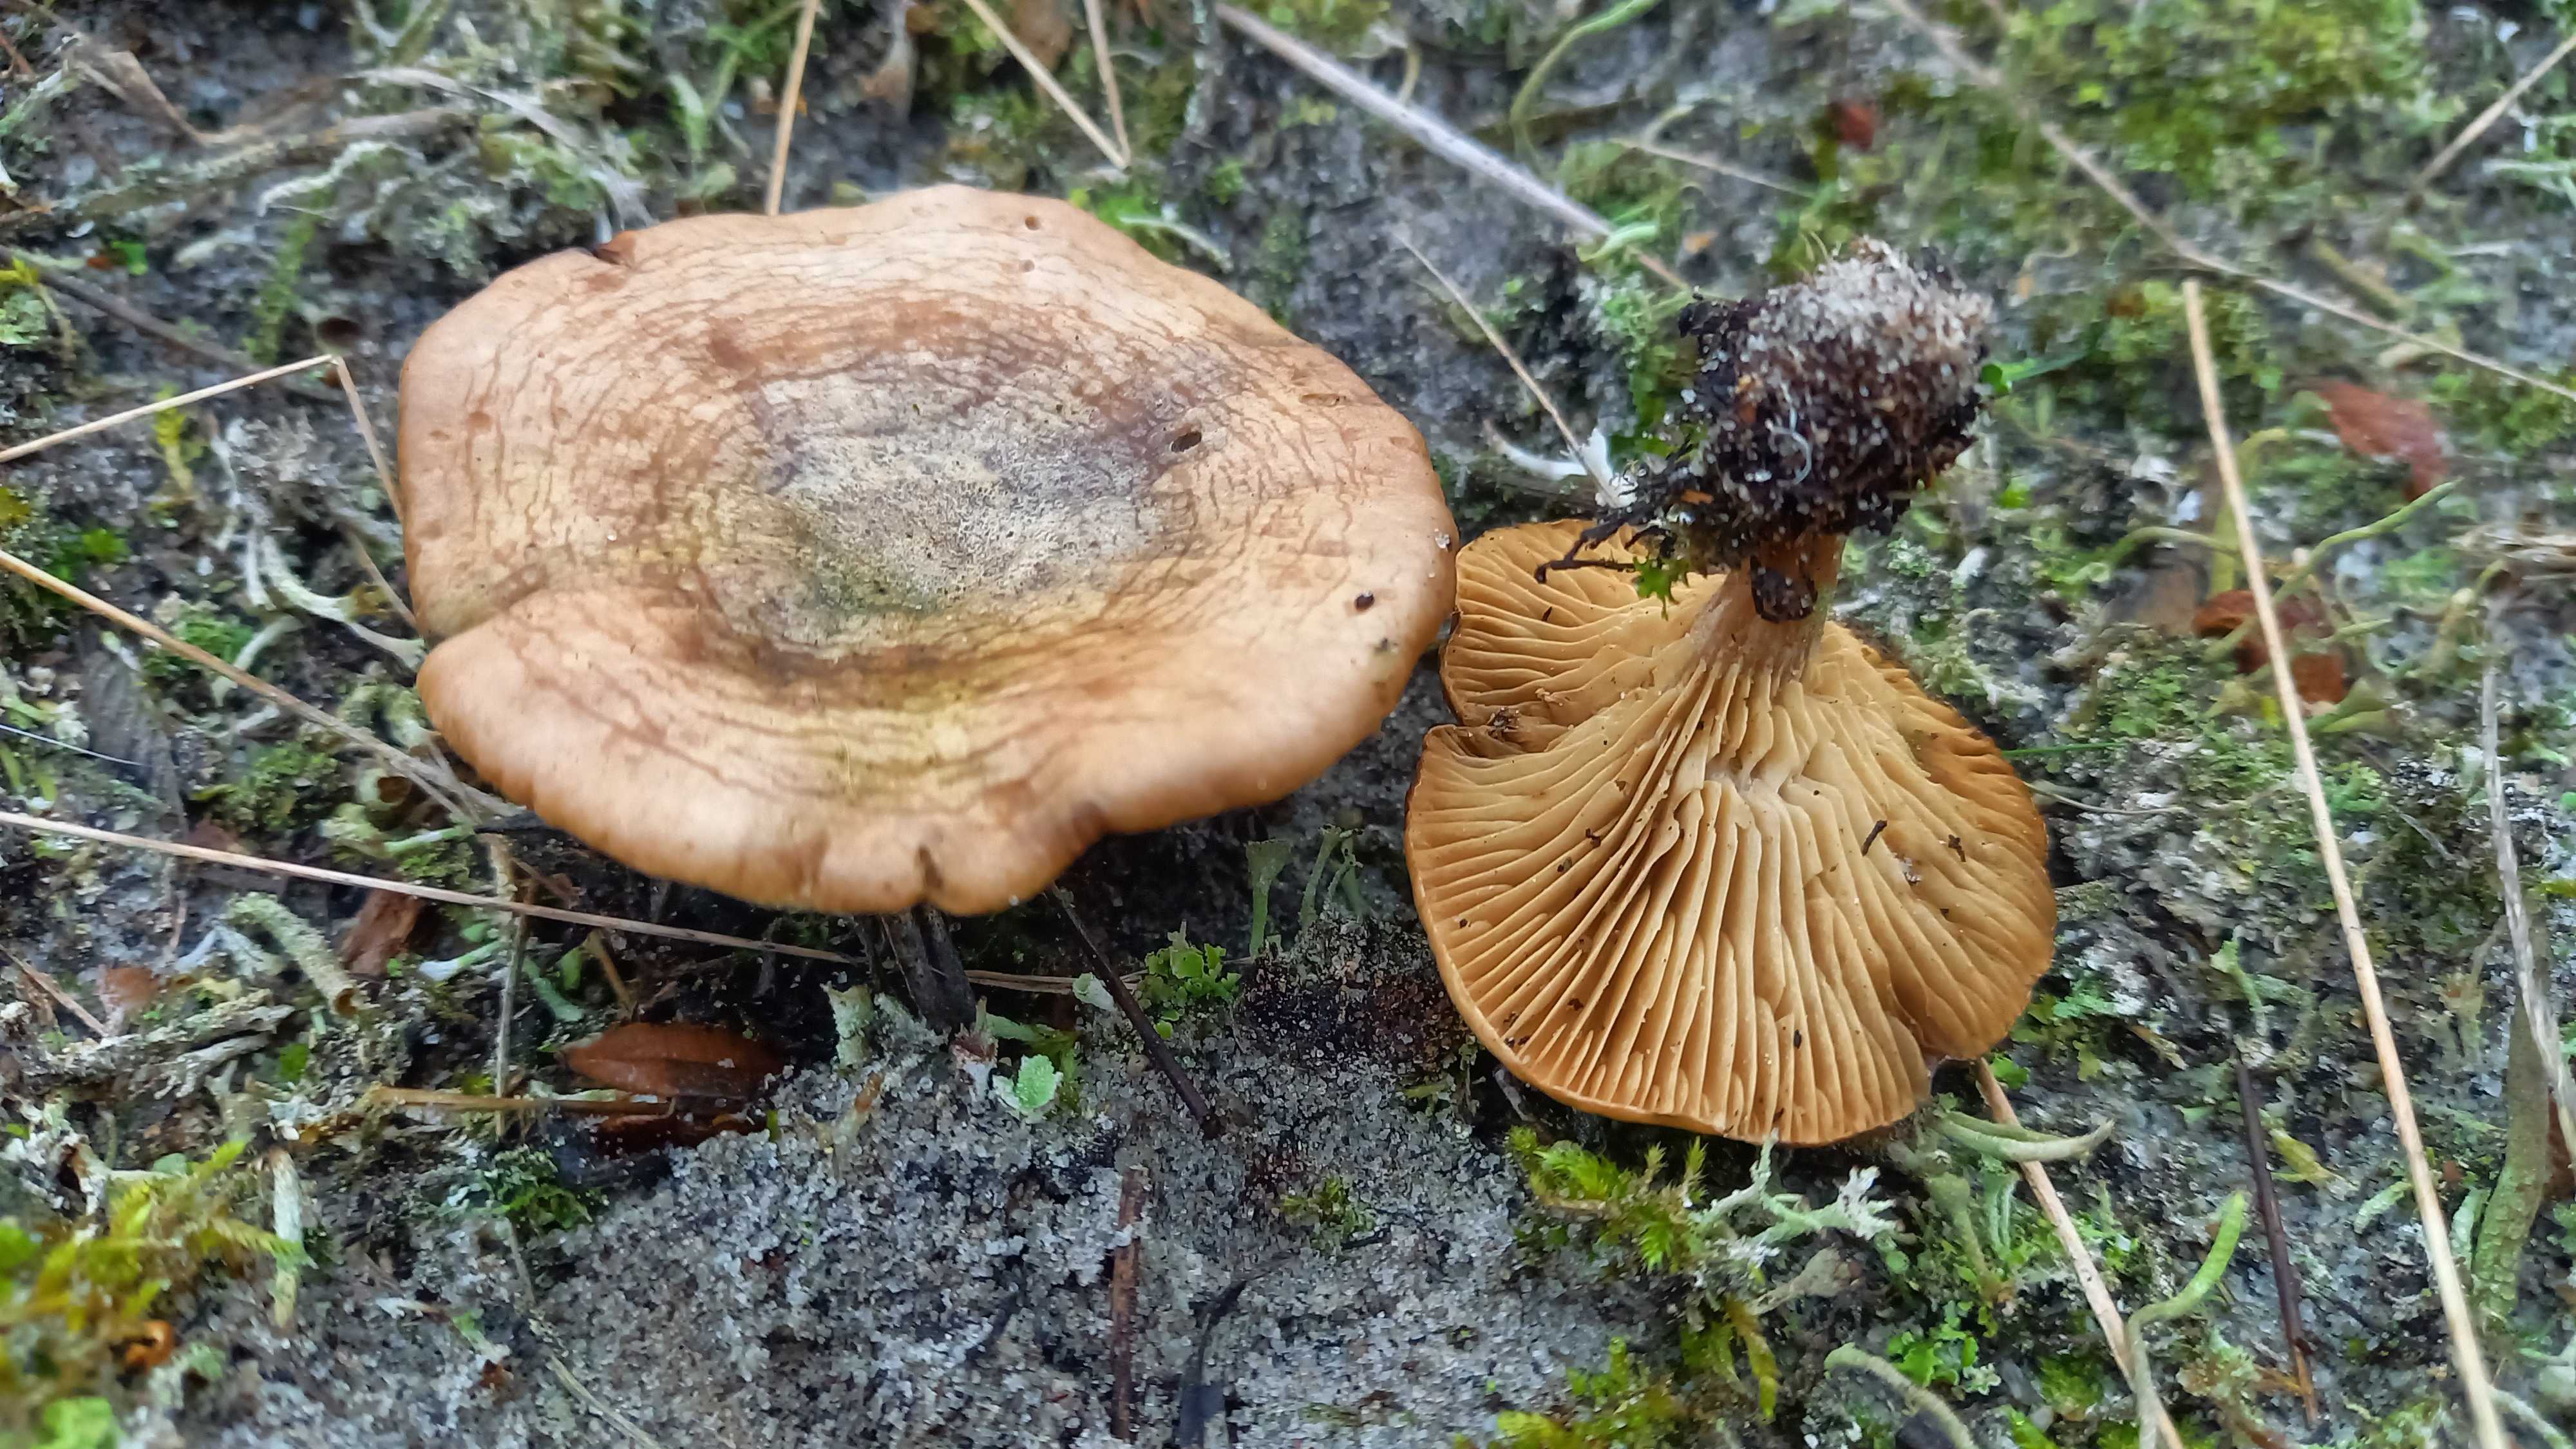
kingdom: Fungi
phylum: Basidiomycota
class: Agaricomycetes
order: Agaricales
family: Tricholomataceae
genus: Lulesia
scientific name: Lulesia
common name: sortnende troldhat
